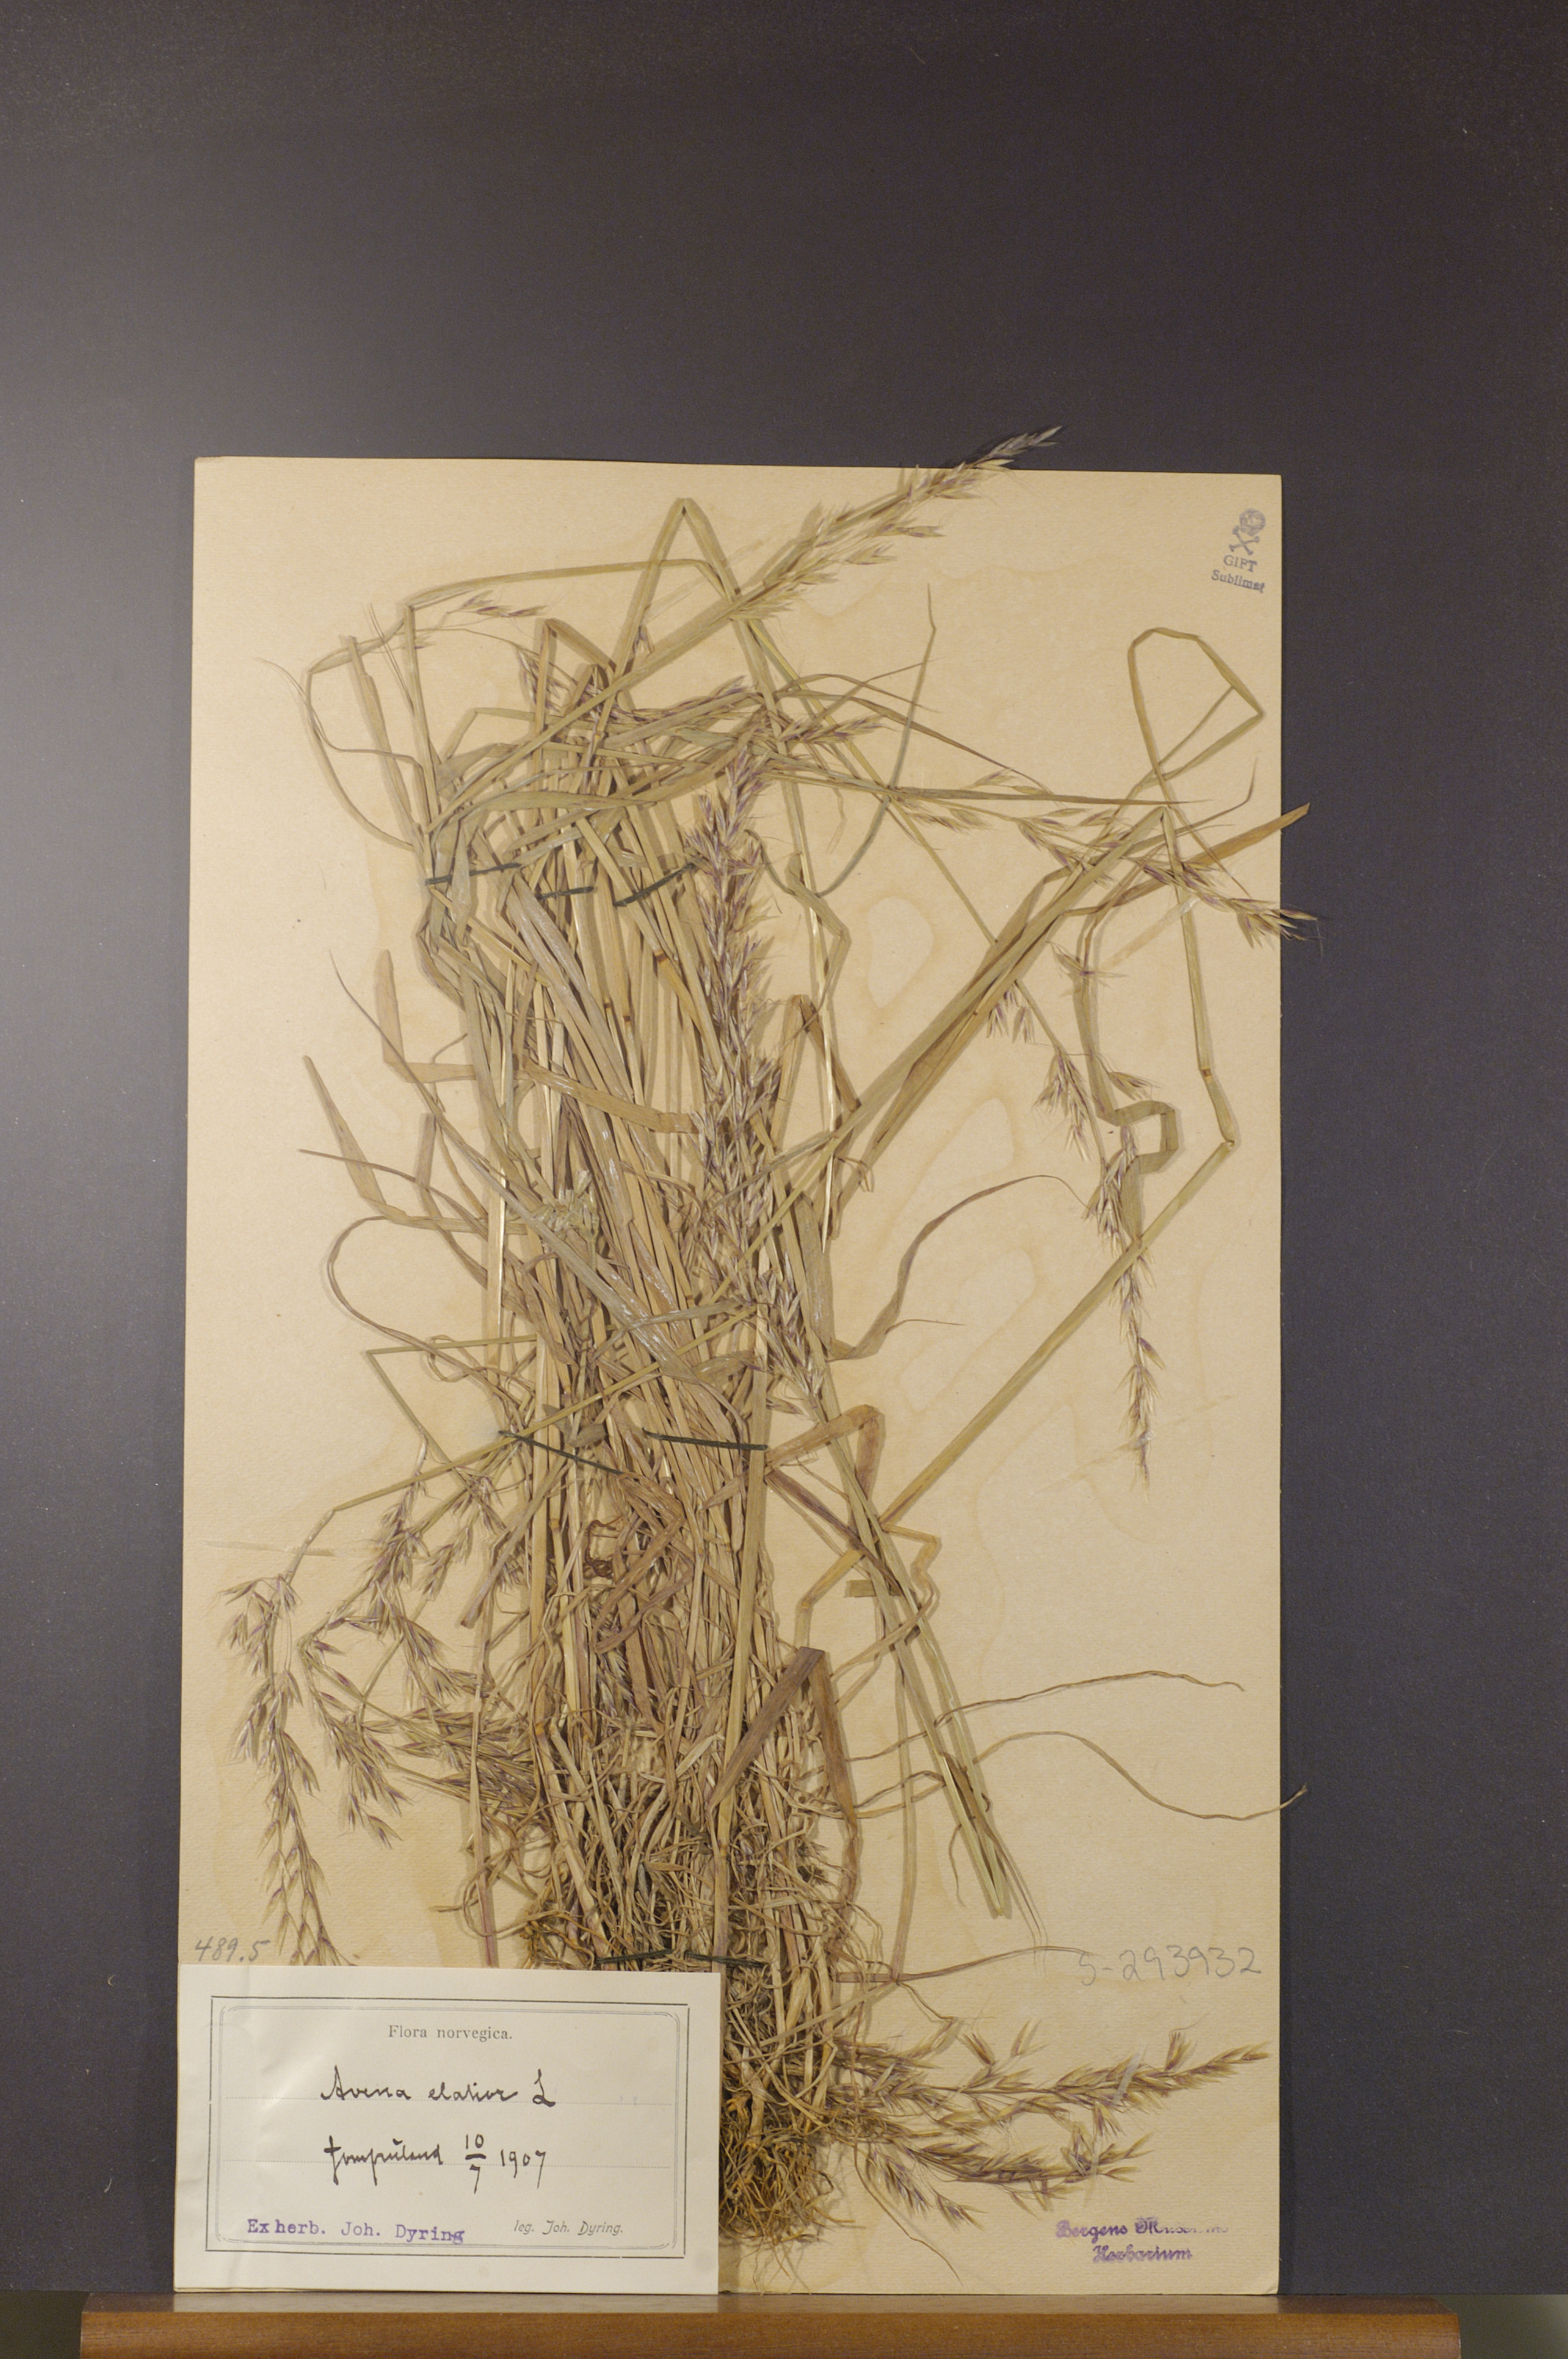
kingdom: Plantae
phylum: Tracheophyta
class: Liliopsida
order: Poales
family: Poaceae
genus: Arrhenatherum
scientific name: Arrhenatherum elatius
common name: Tall oatgrass
